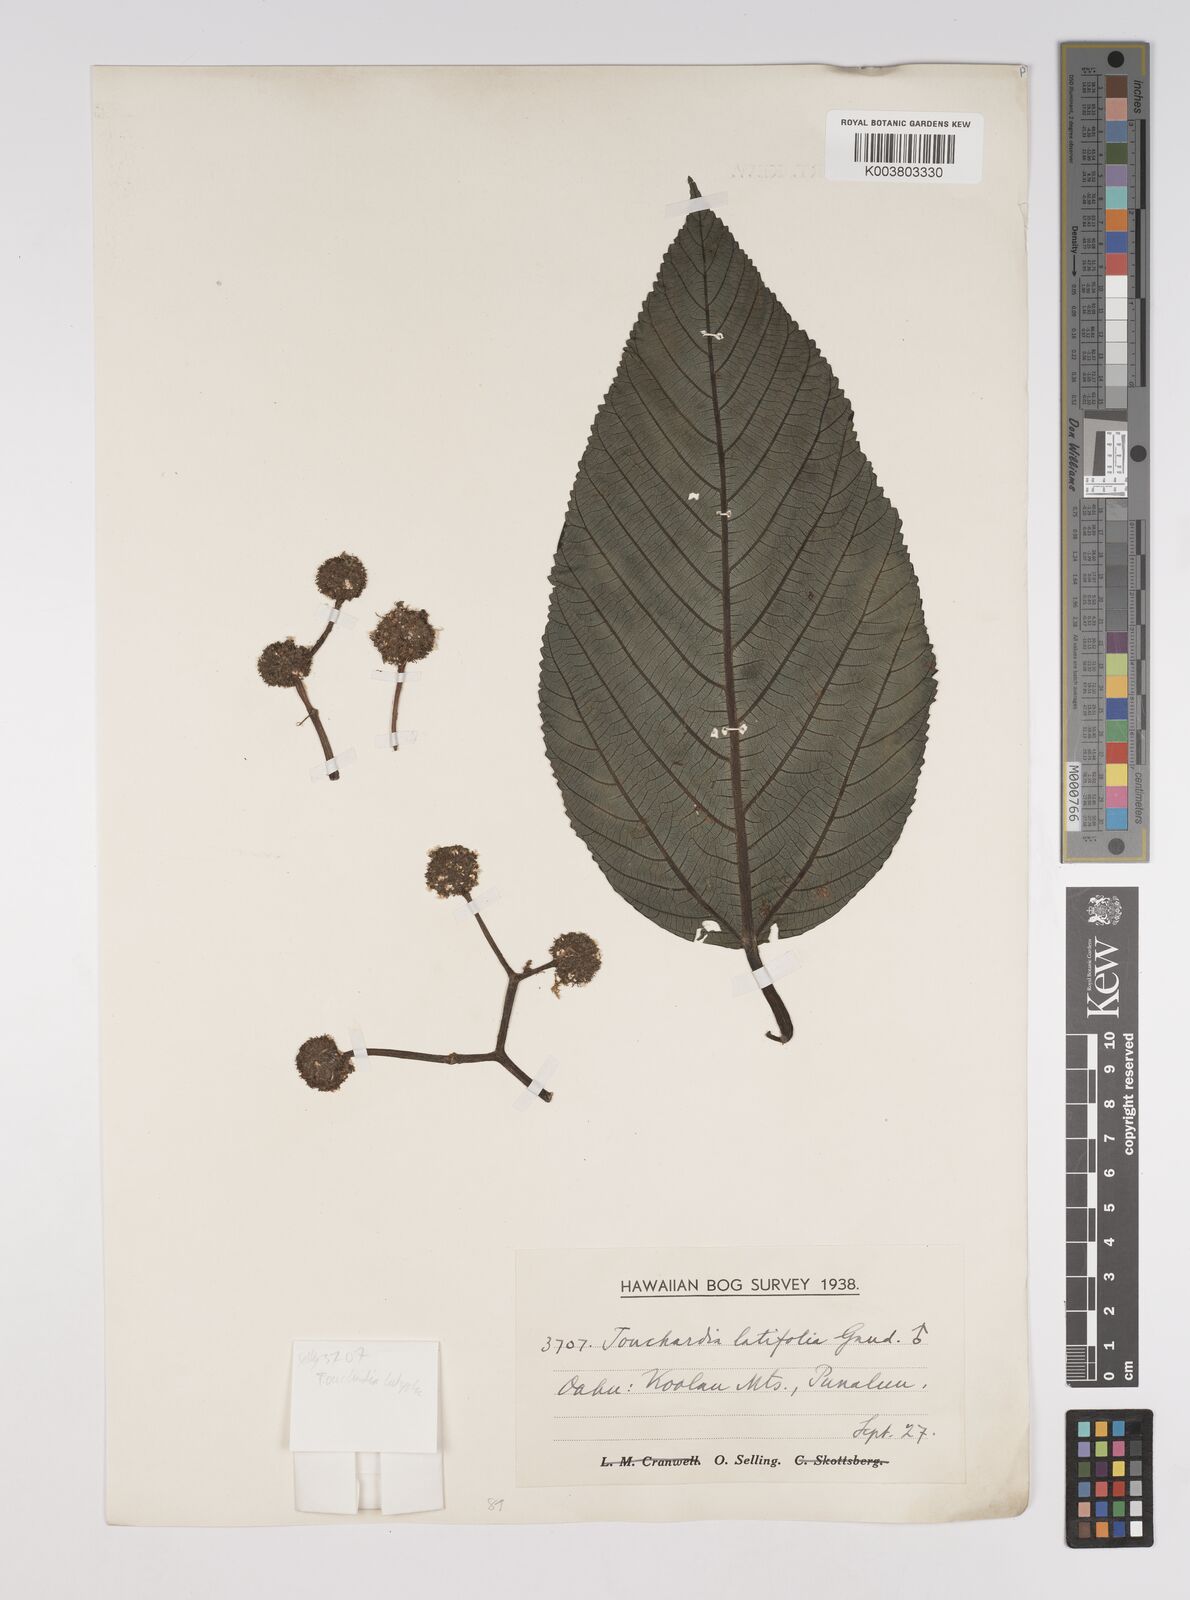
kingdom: Plantae
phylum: Tracheophyta
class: Magnoliopsida
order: Rosales
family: Urticaceae
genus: Touchardia
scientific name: Touchardia latifolia
